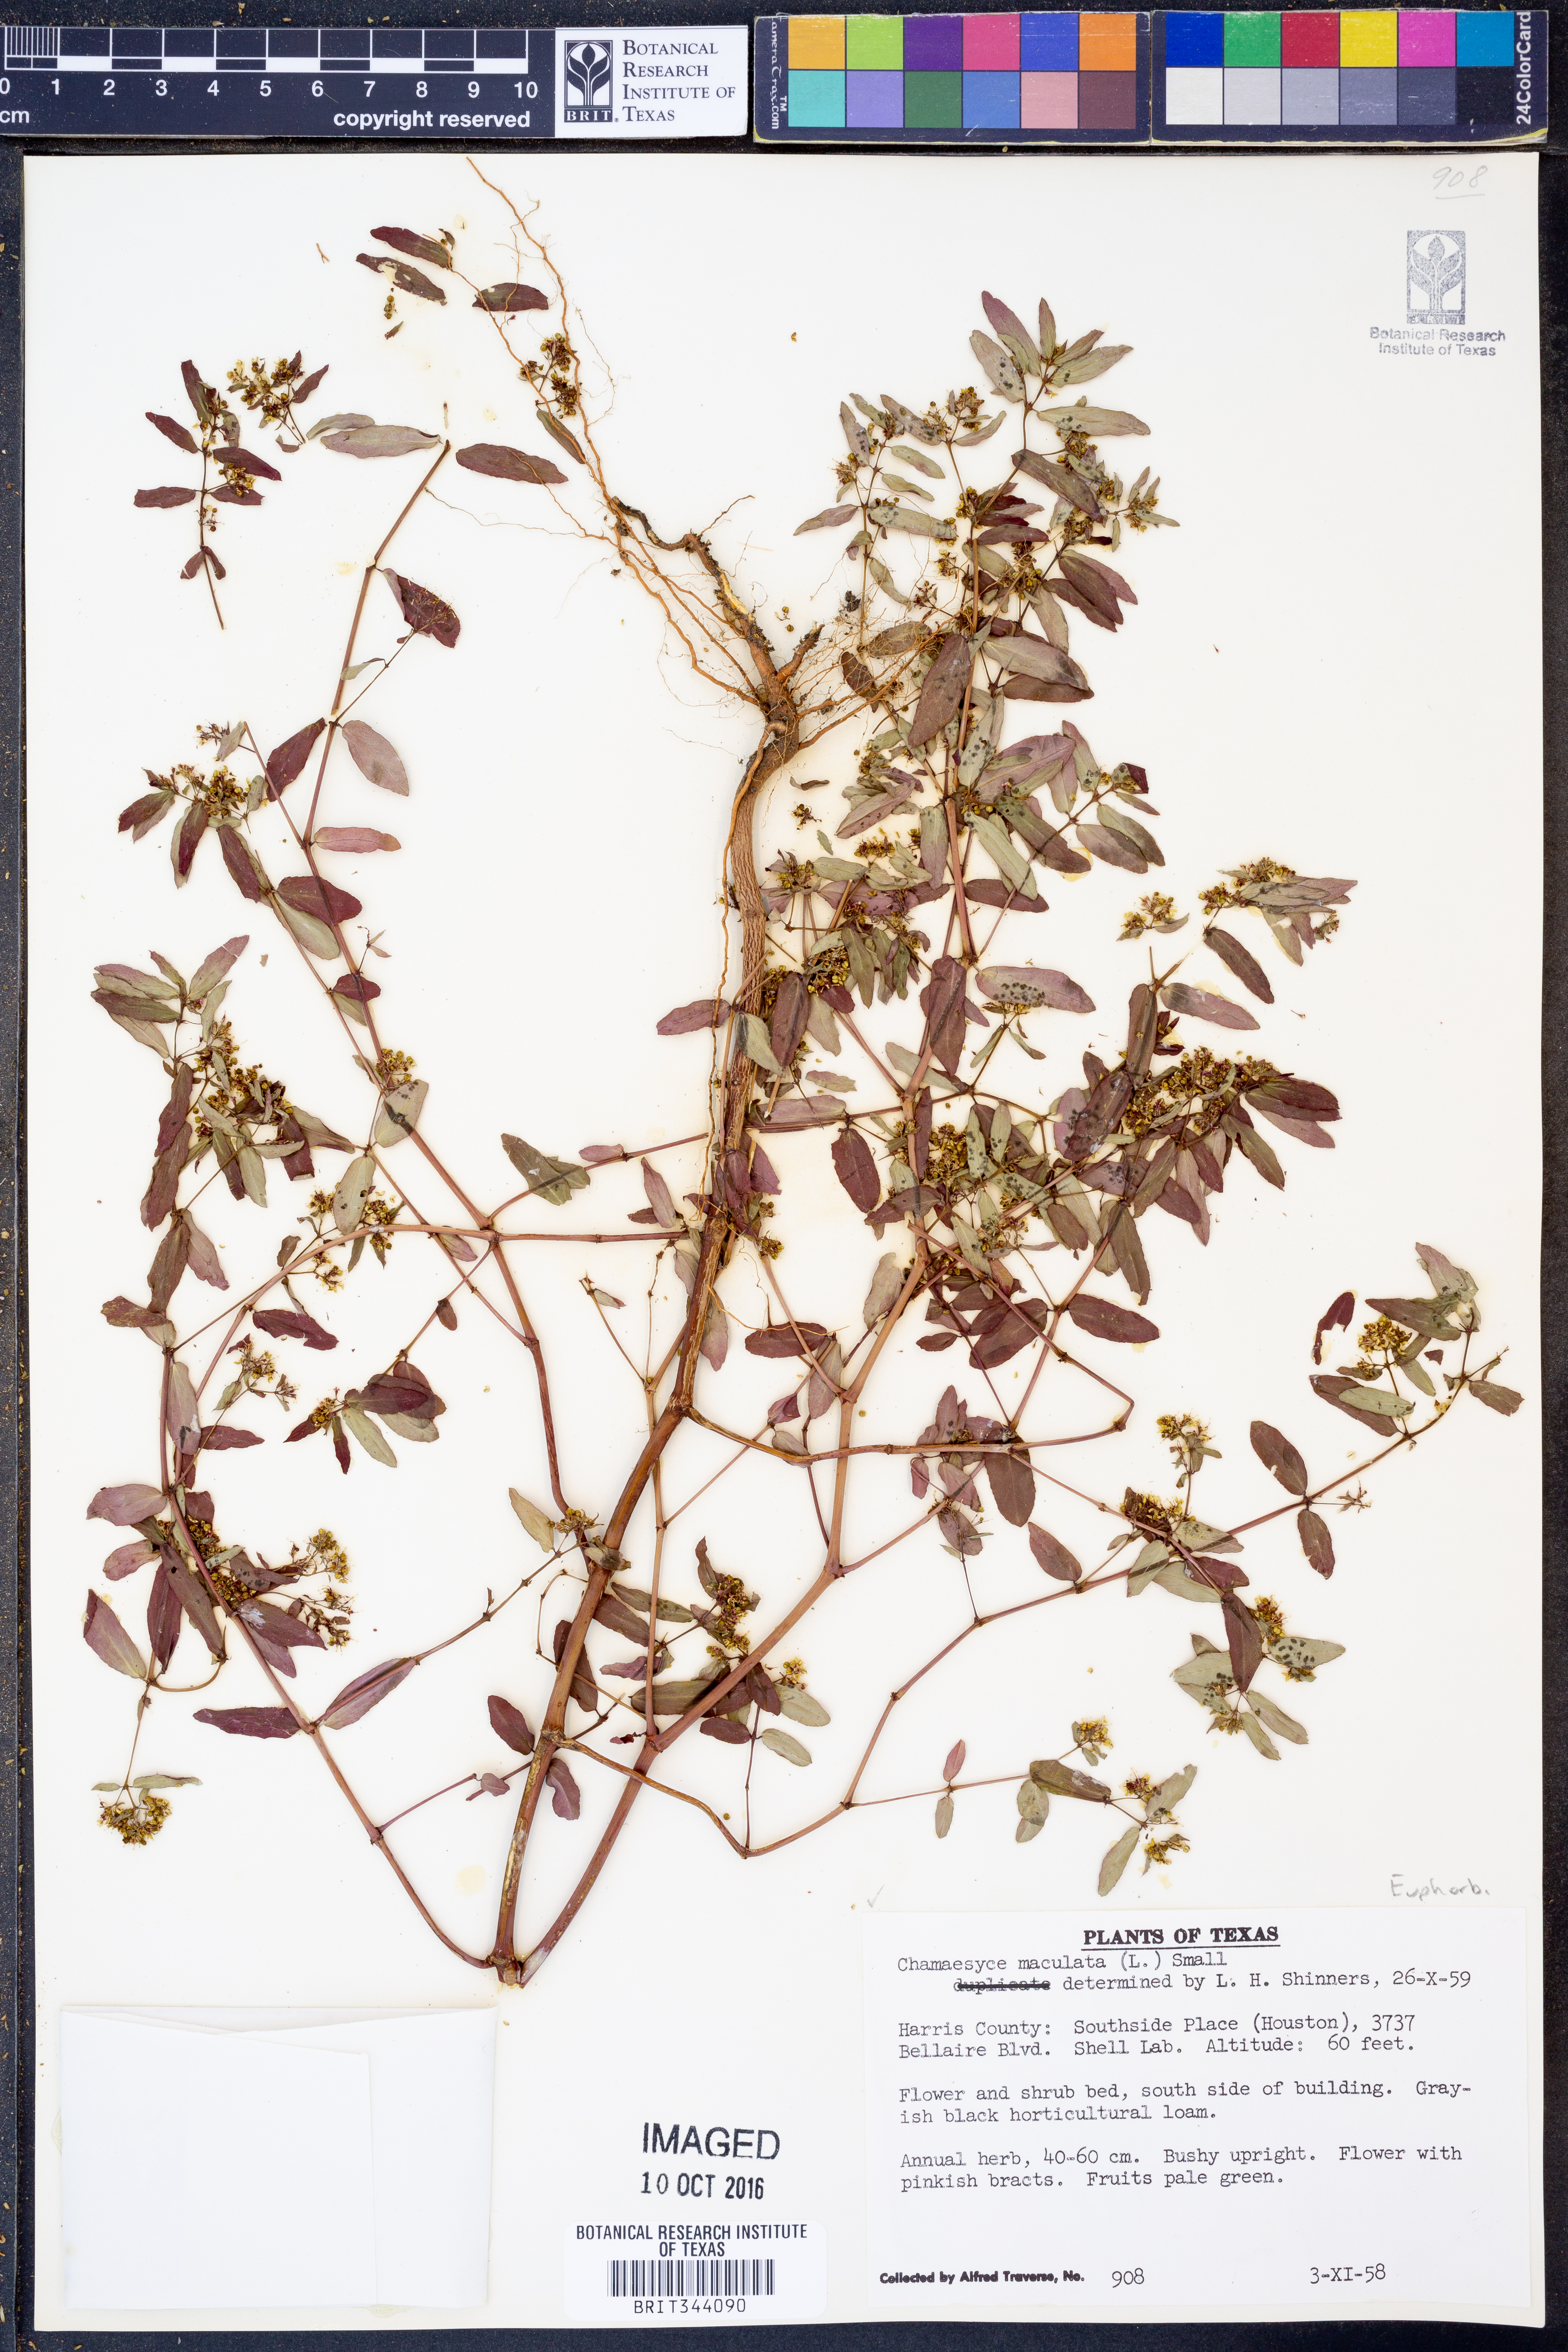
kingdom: Plantae
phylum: Tracheophyta
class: Magnoliopsida
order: Malpighiales
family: Euphorbiaceae
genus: Euphorbia
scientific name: Euphorbia maculata
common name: Spotted spurge
